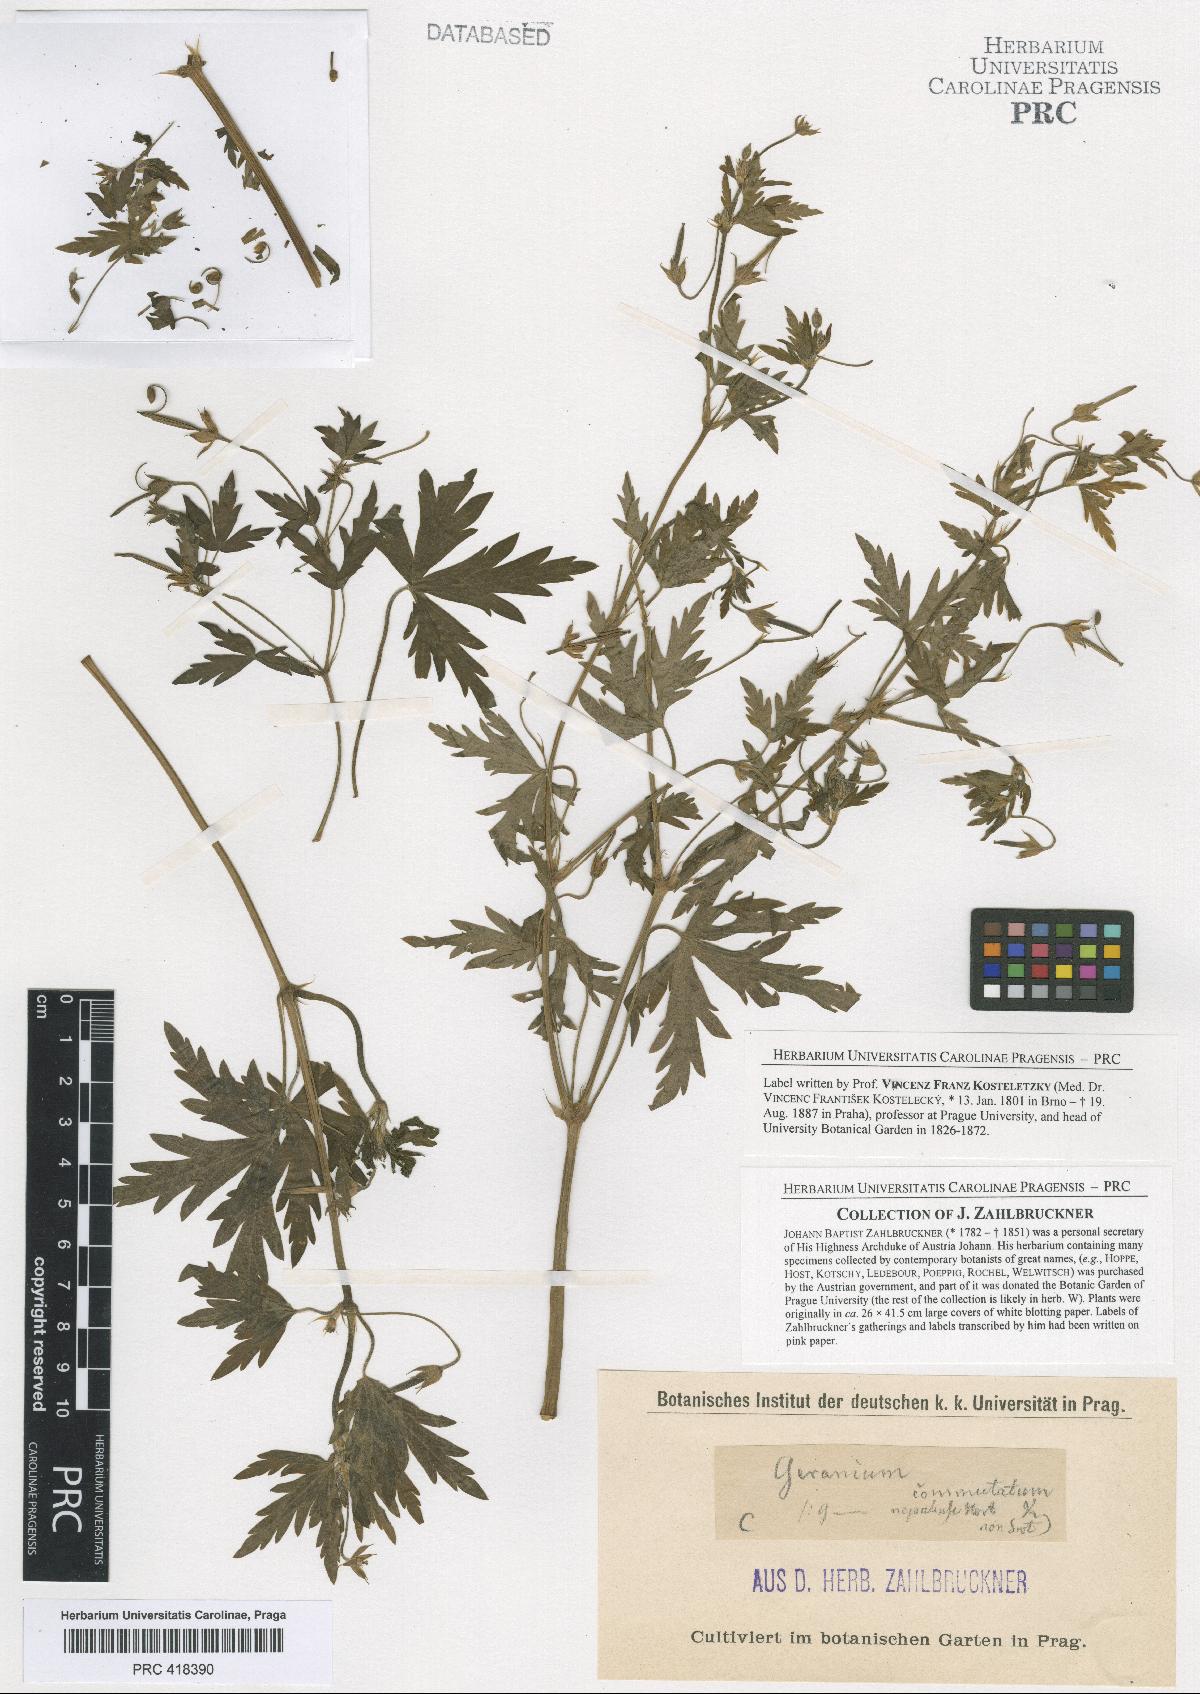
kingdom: Plantae
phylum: Tracheophyta
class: Magnoliopsida
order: Geraniales
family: Geraniaceae
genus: Geranium
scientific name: Geranium sibiricum
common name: Siberian crane's-bill
